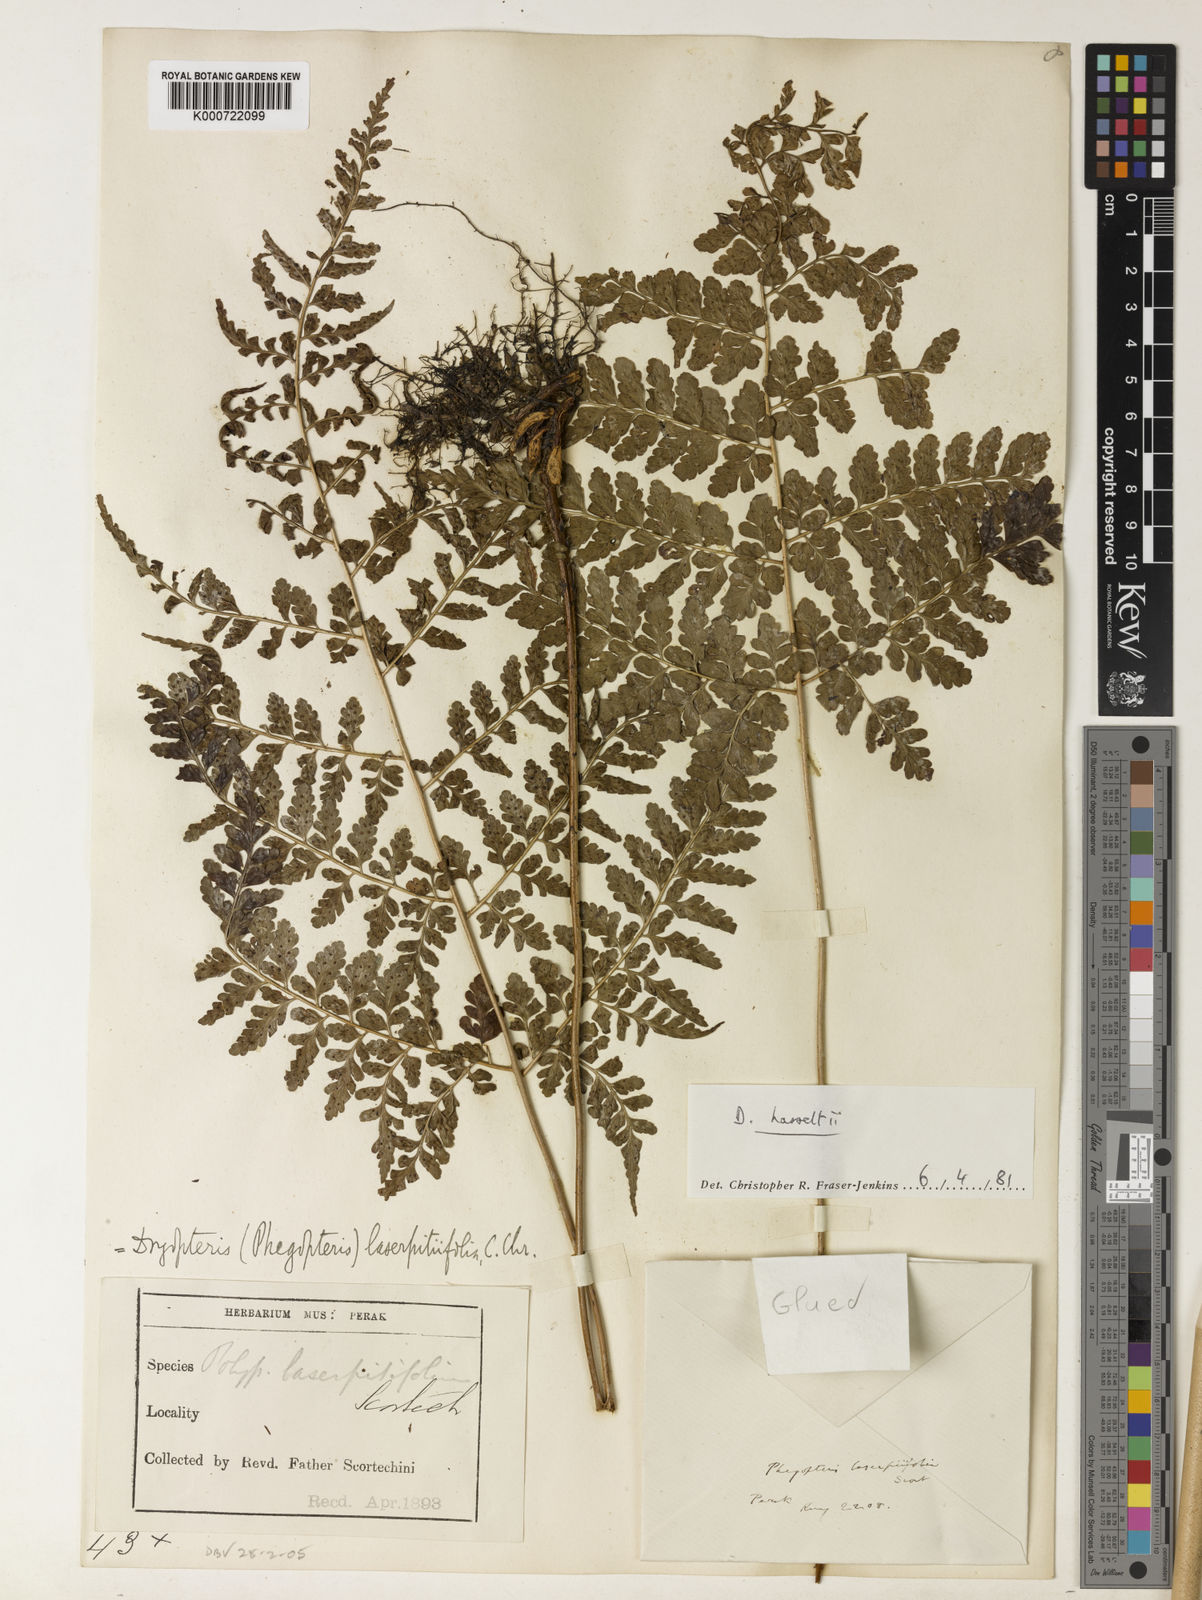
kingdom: Plantae
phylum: Tracheophyta
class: Polypodiopsida
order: Polypodiales
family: Dryopteridaceae
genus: Dryopteris
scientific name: Dryopteris hasseltii
